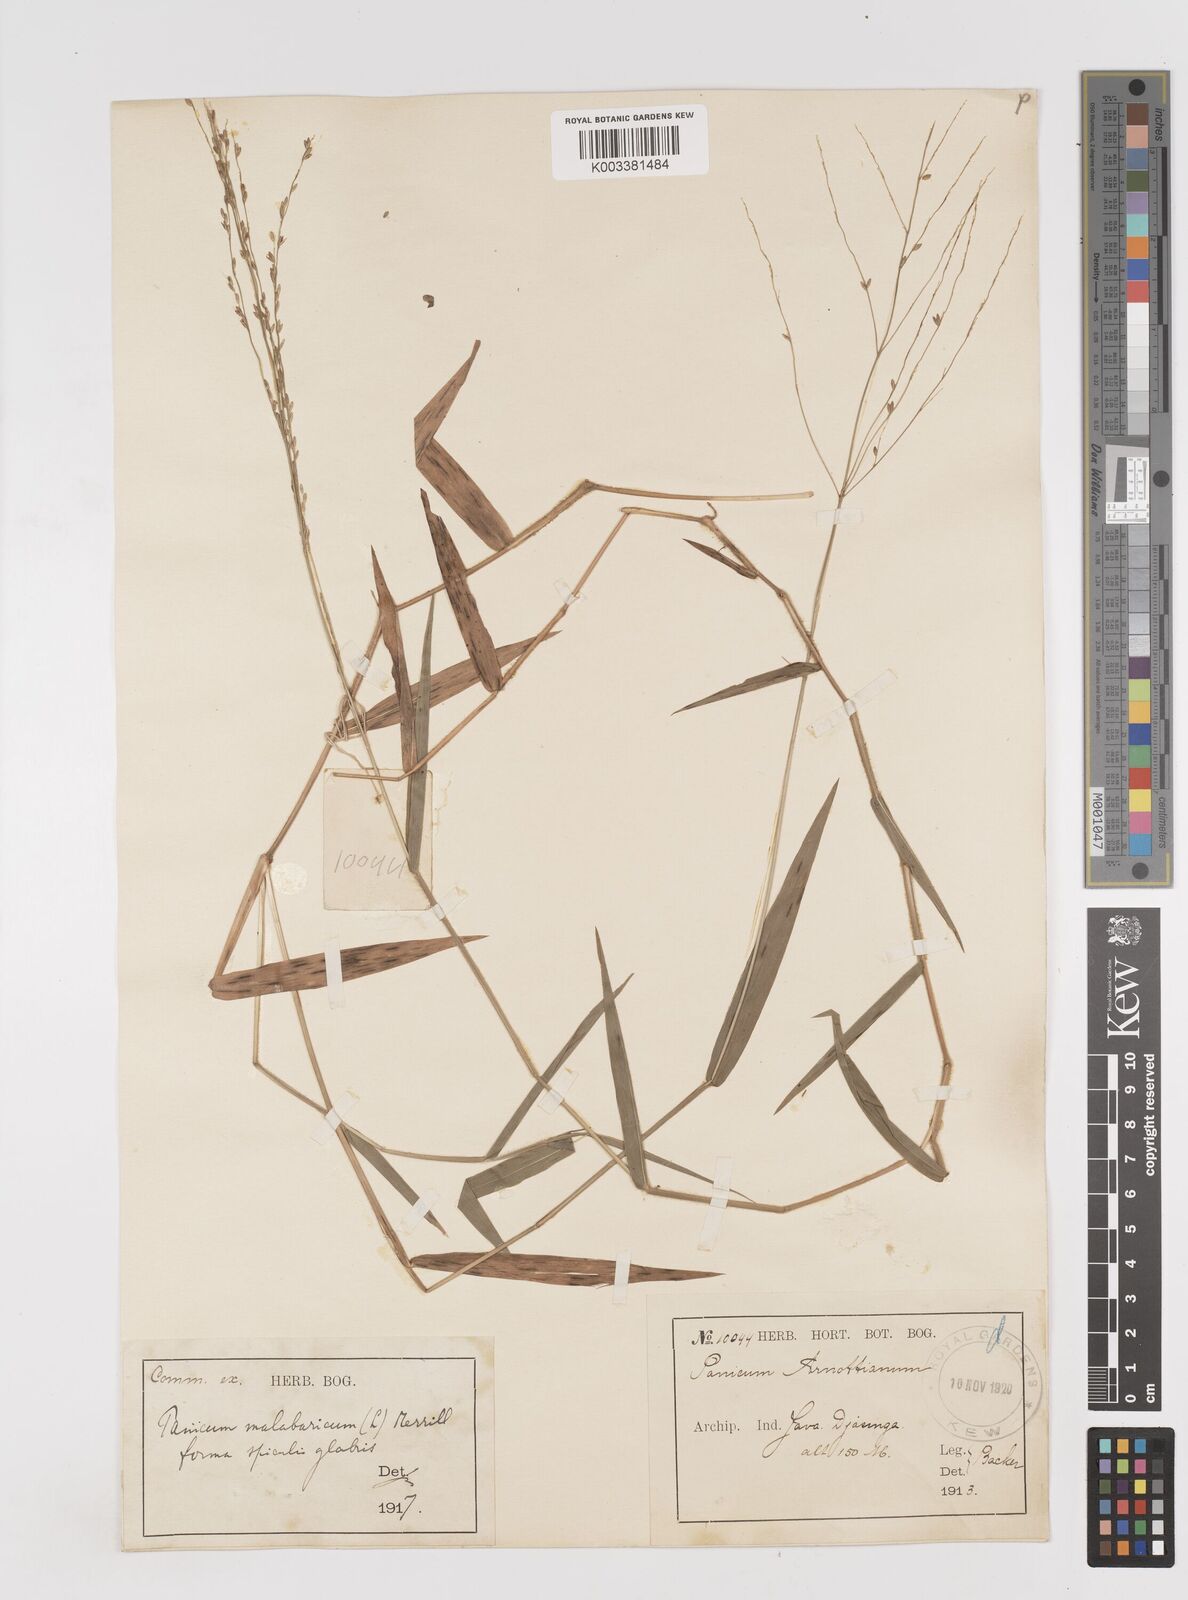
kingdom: Plantae
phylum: Tracheophyta
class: Liliopsida
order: Poales
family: Poaceae
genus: Ottochloa
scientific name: Ottochloa nodosa
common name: Slender-panic grass
